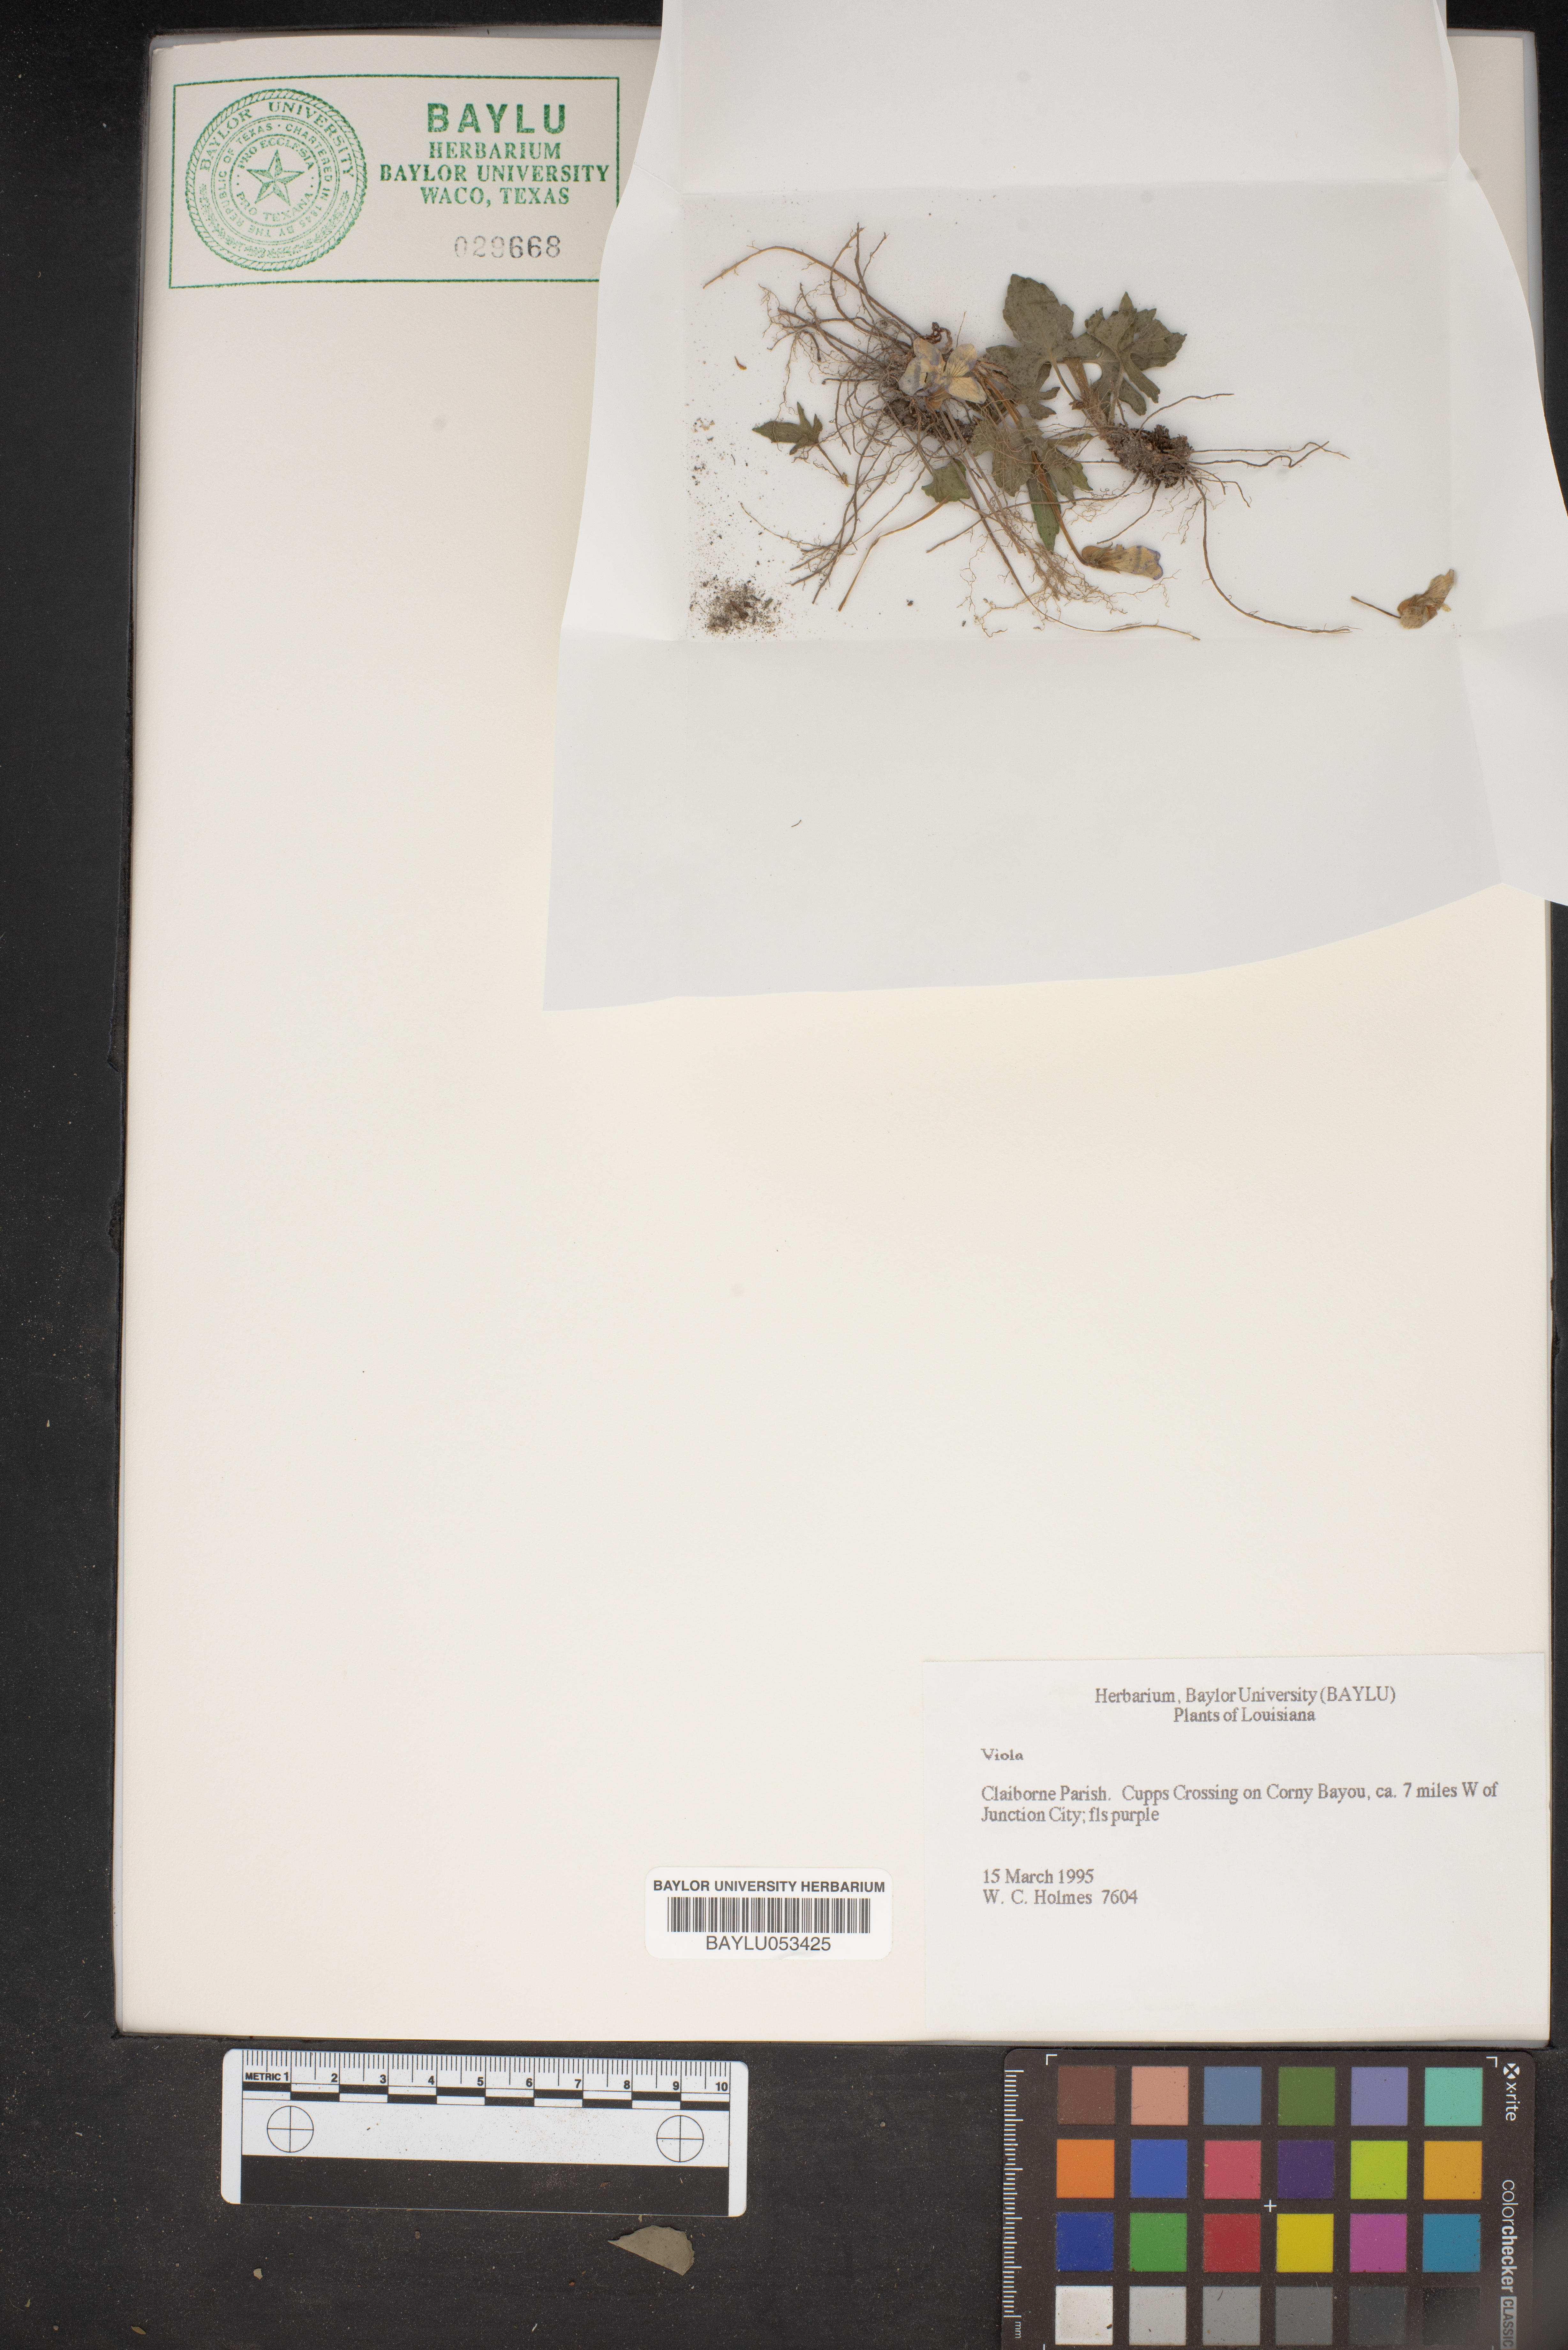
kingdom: Plantae
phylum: Tracheophyta
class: Magnoliopsida
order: Malpighiales
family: Violaceae
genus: Viola
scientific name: Viola
